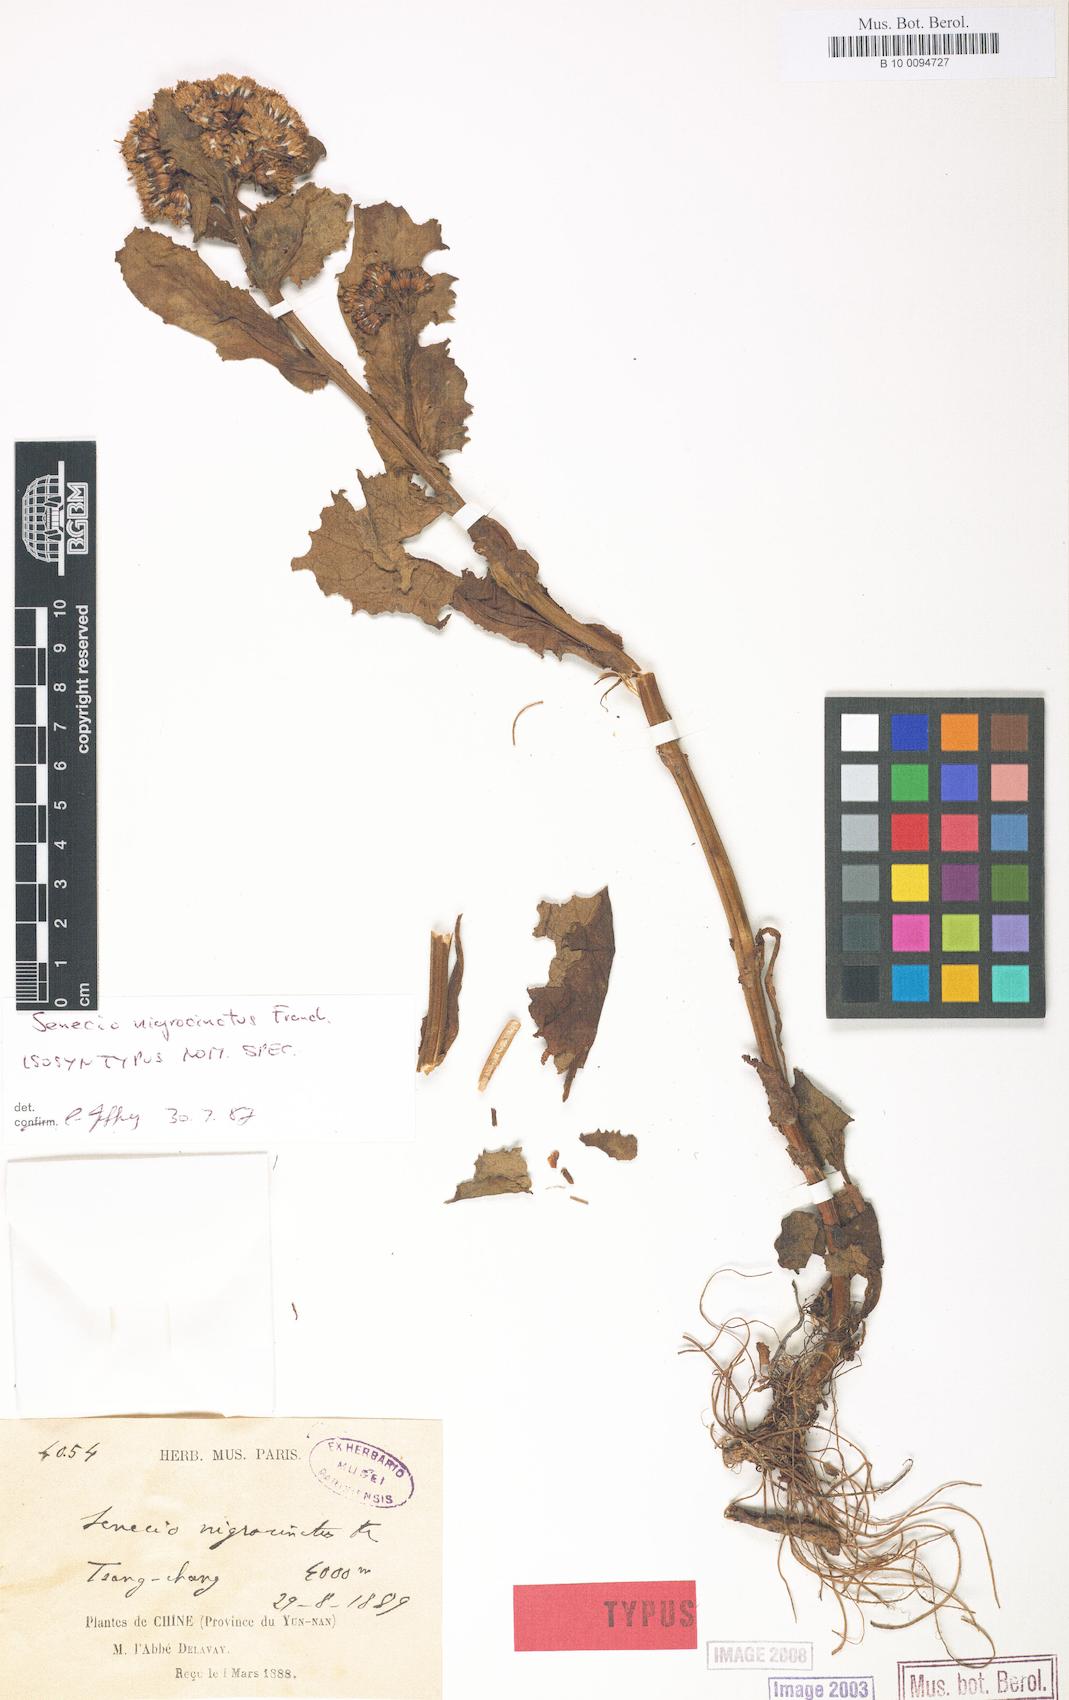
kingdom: Plantae
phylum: Tracheophyta
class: Magnoliopsida
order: Asterales
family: Asteraceae
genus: Senecio
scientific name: Senecio nigrocinctus
